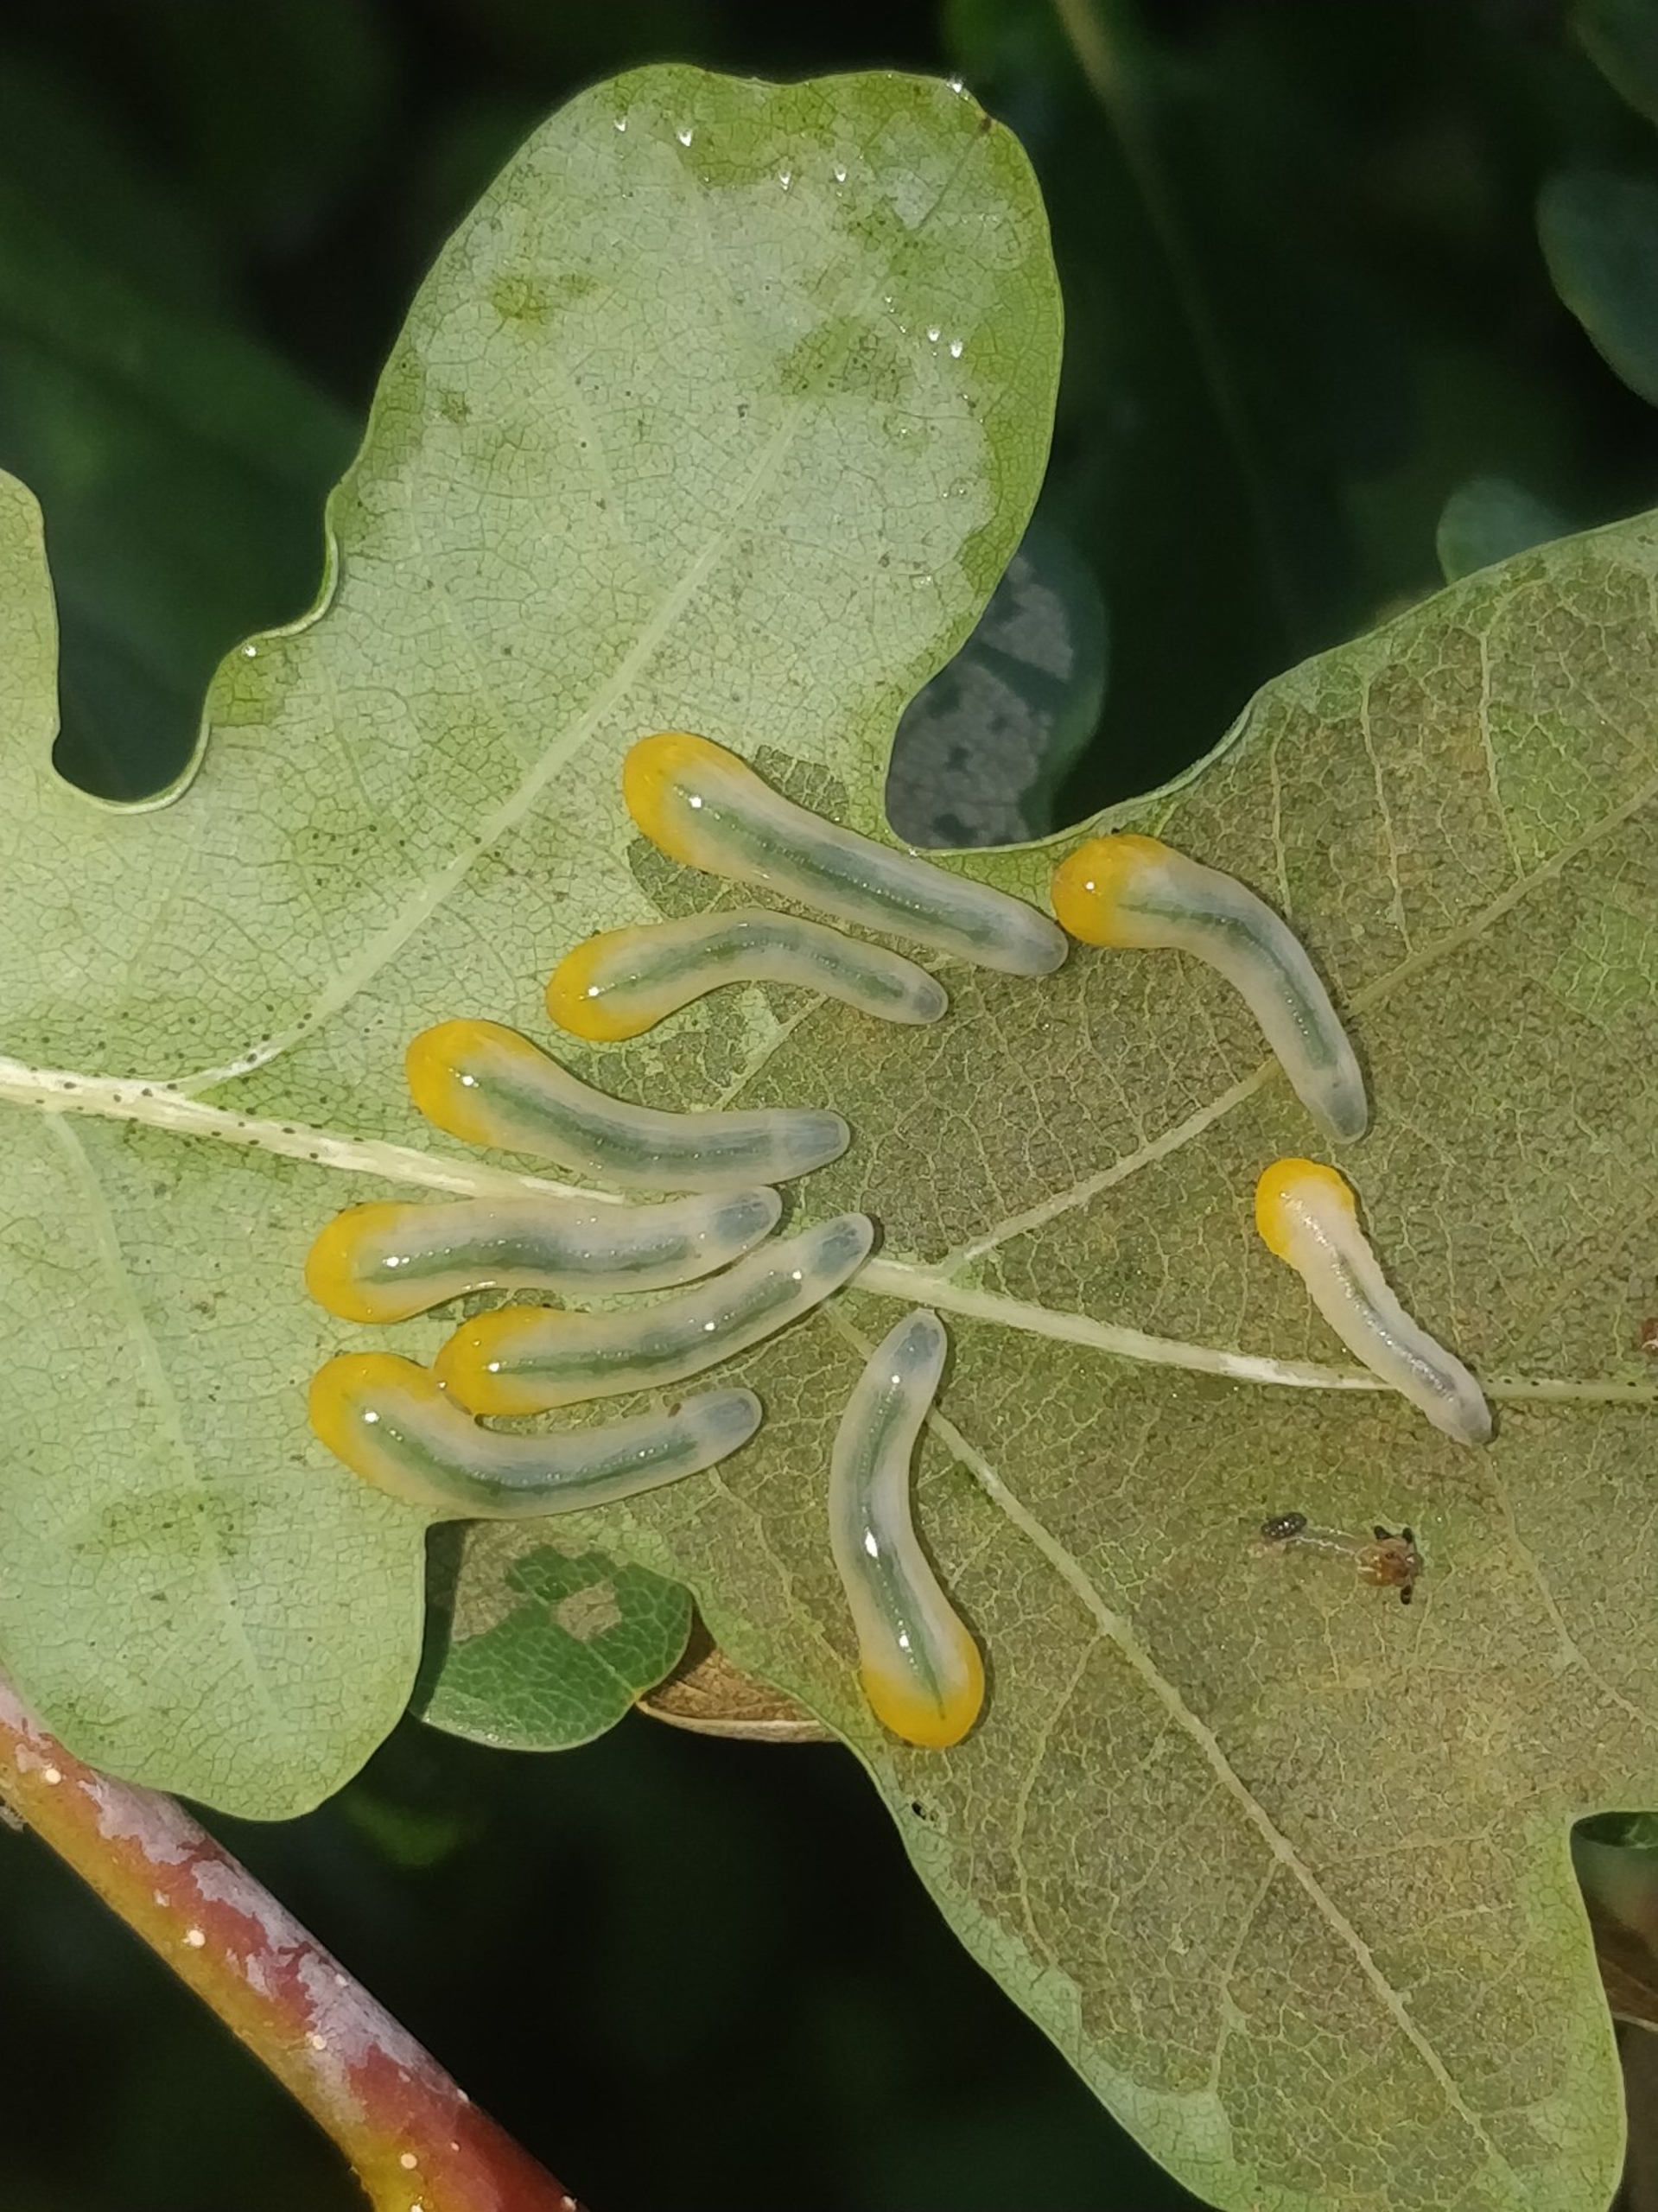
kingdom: Animalia
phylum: Arthropoda
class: Insecta
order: Hymenoptera
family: Tenthredinidae
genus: Caliroa
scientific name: Caliroa cinxia
